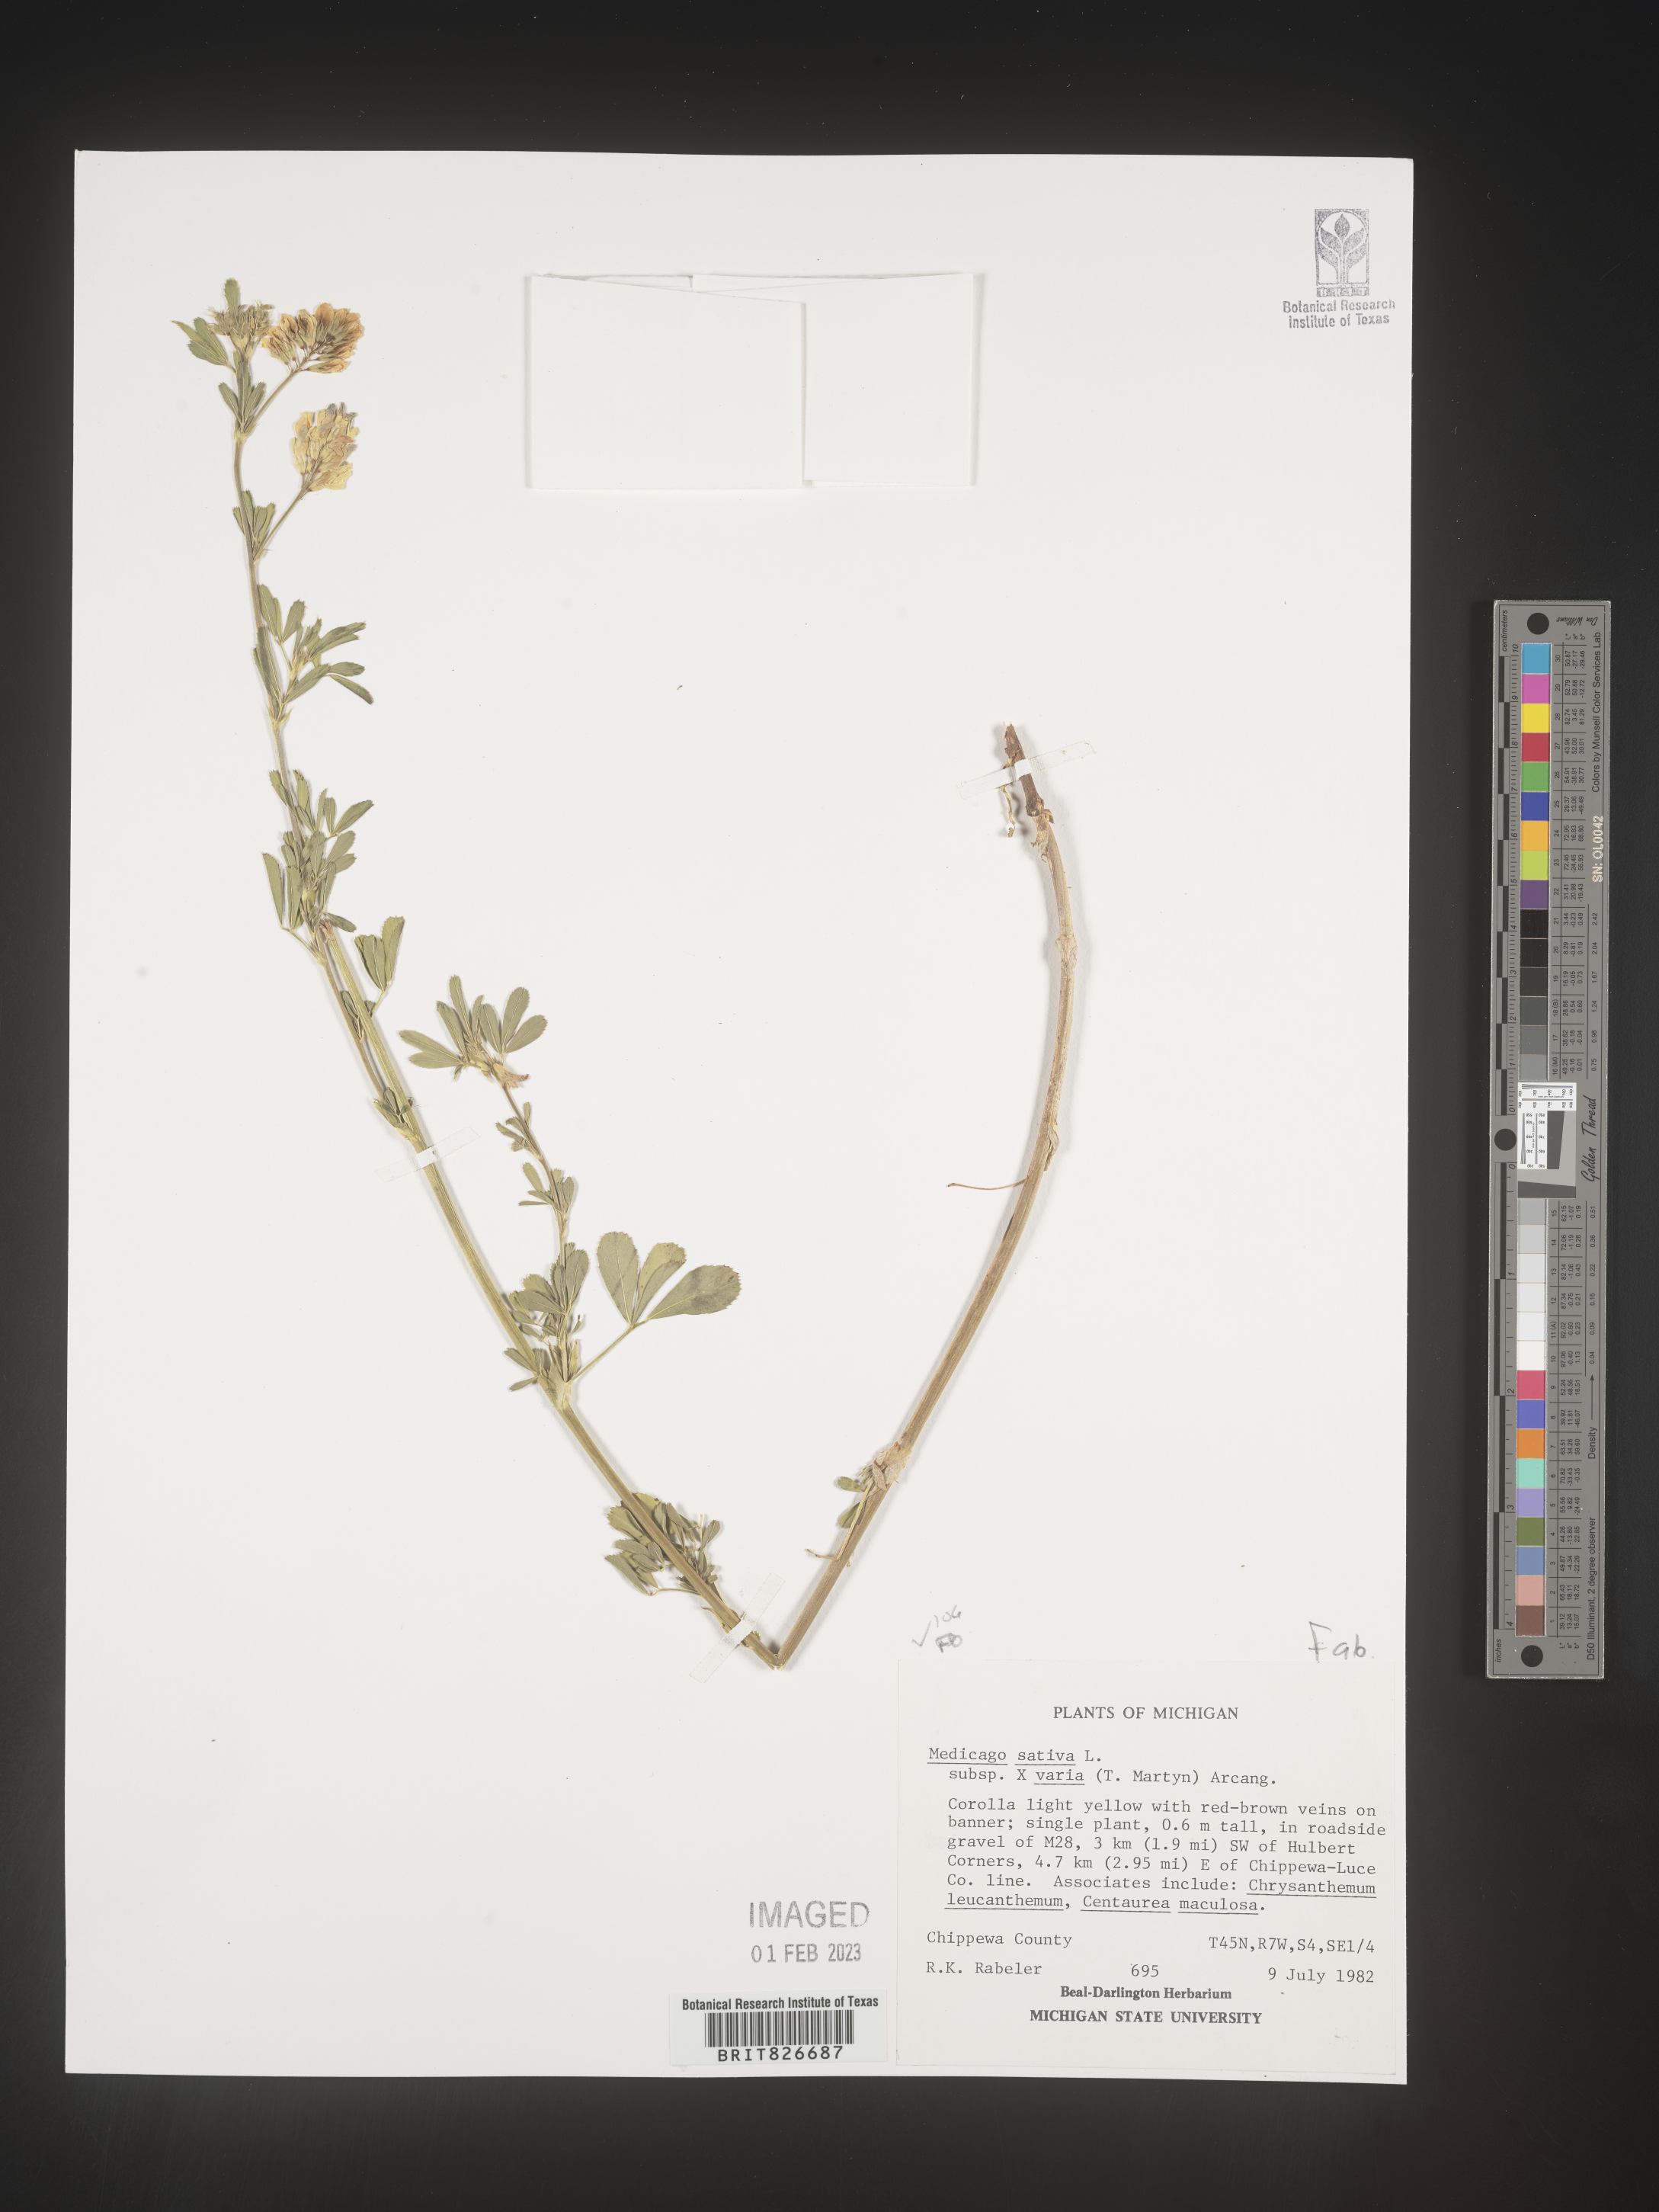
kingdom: Plantae
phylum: Tracheophyta
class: Magnoliopsida
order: Fabales
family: Fabaceae
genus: Medicago
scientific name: Medicago sativa
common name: Alfalfa
